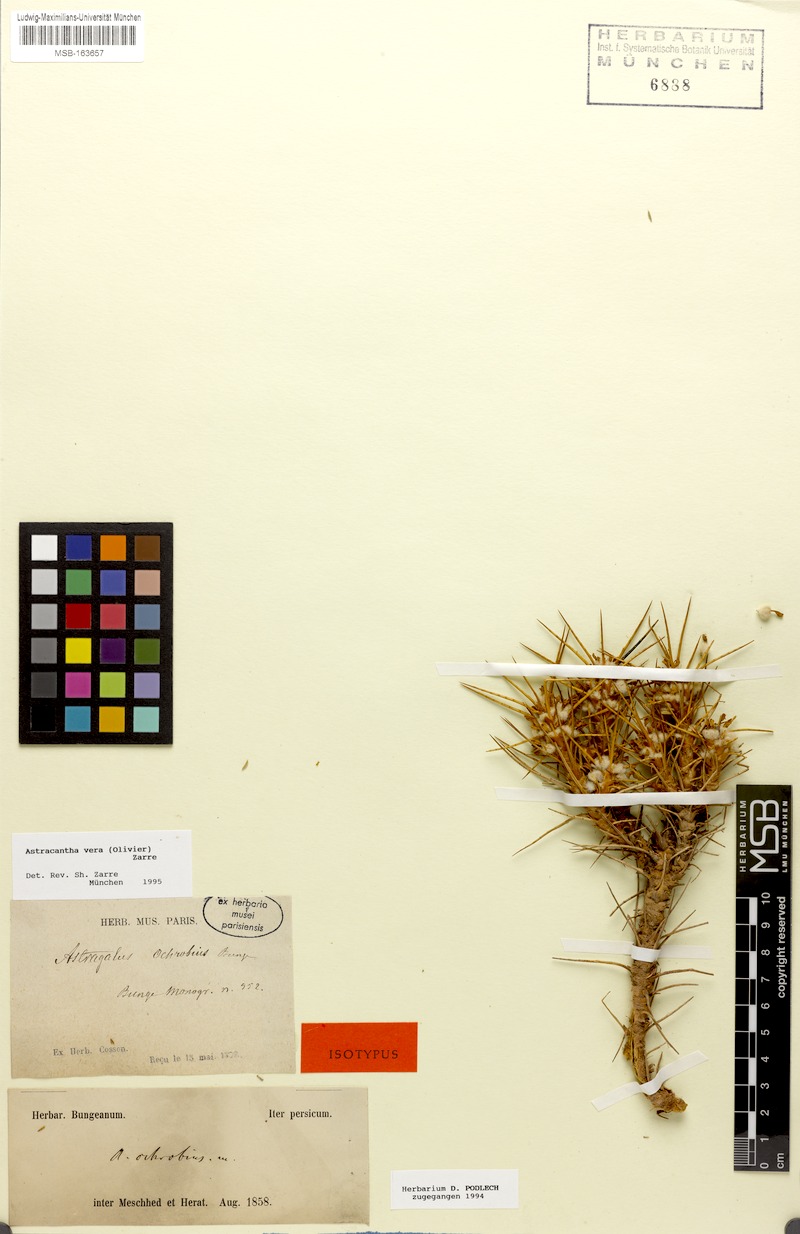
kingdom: Plantae
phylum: Tracheophyta
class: Magnoliopsida
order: Fabales
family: Fabaceae
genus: Astragalus
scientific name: Astragalus verus
